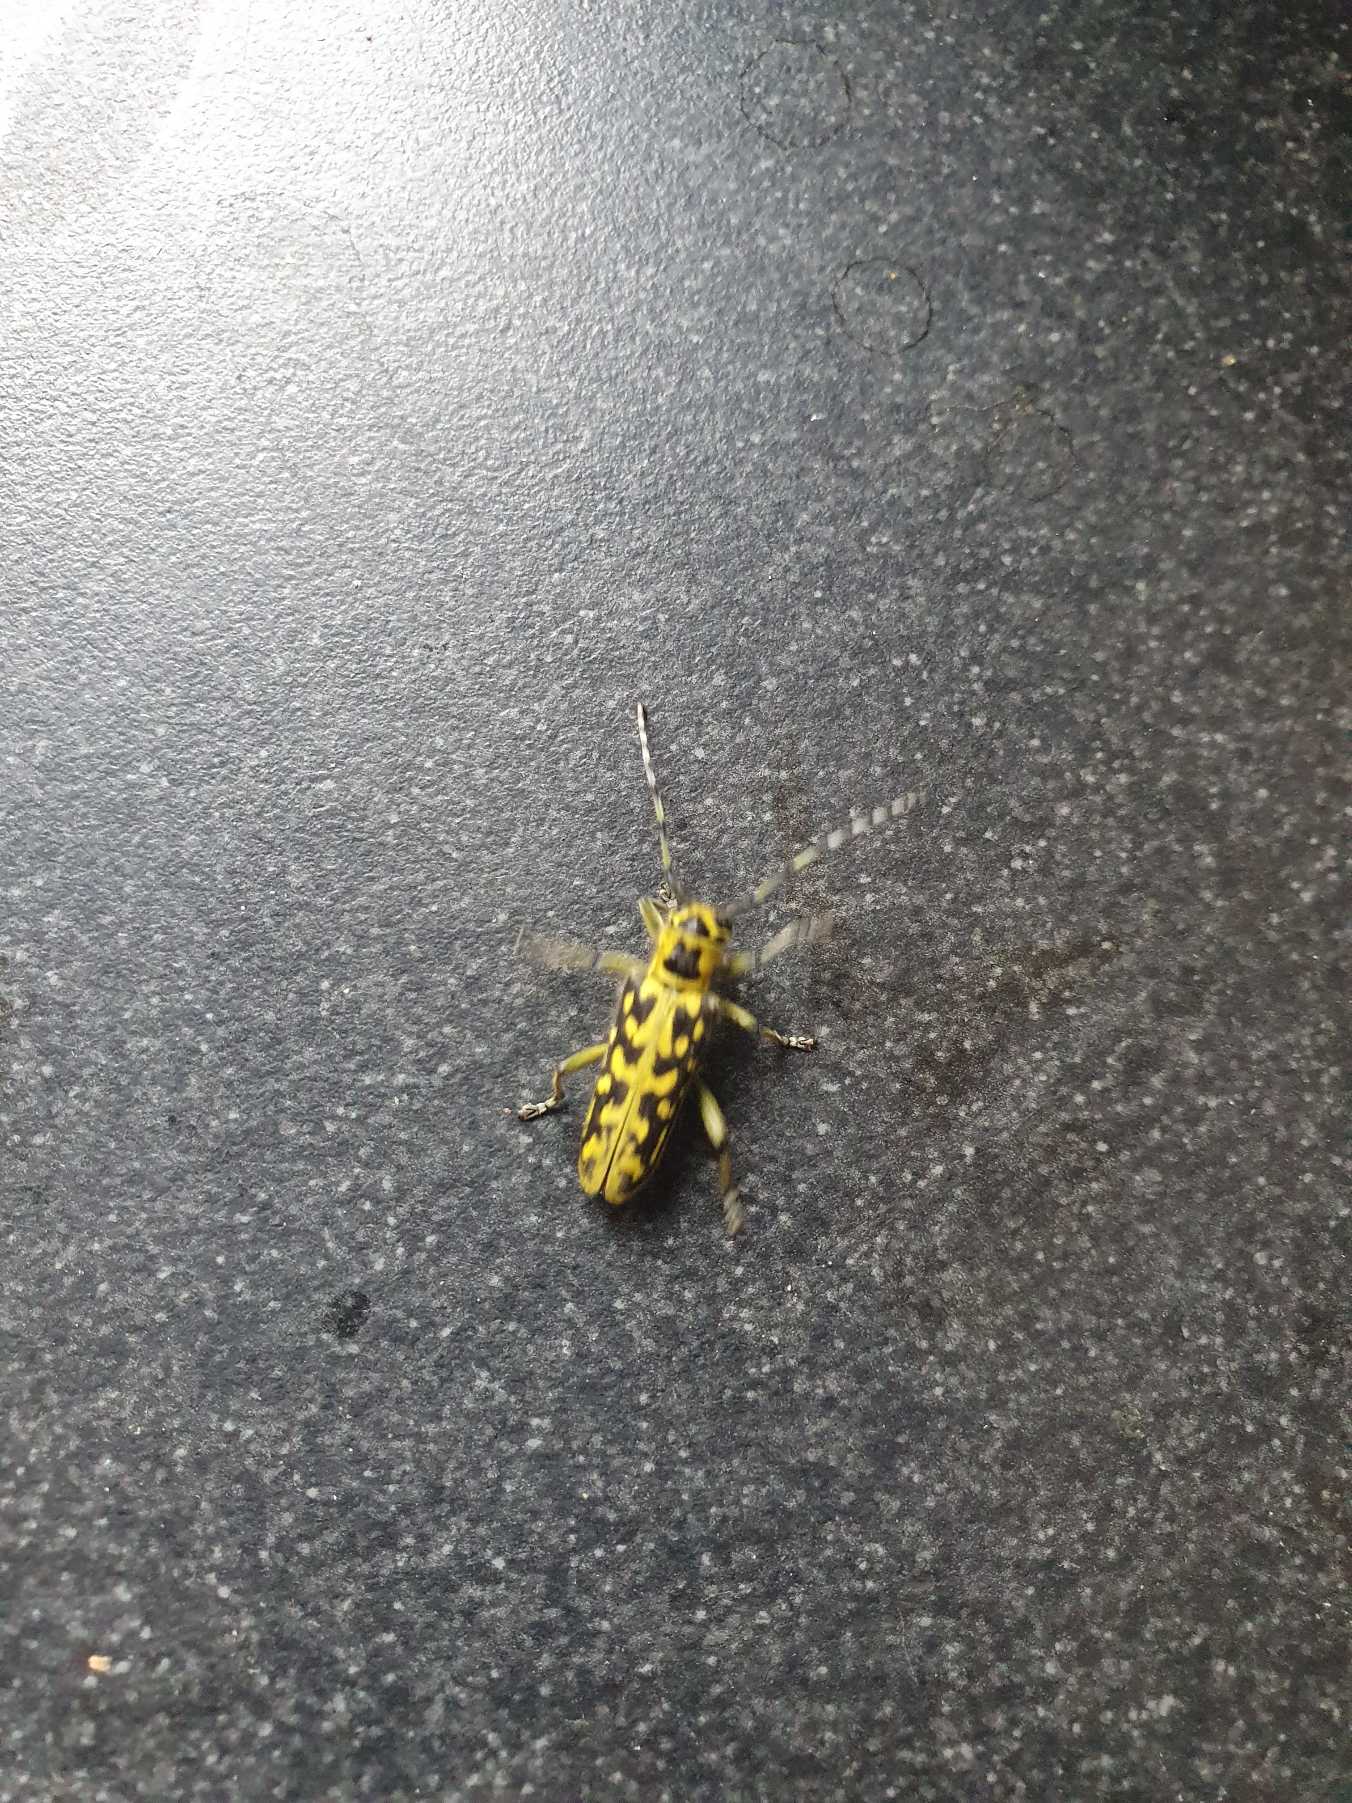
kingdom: Animalia
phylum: Arthropoda
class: Insecta
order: Coleoptera
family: Cerambycidae
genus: Saperda
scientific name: Saperda scalaris
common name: Stigebuk
